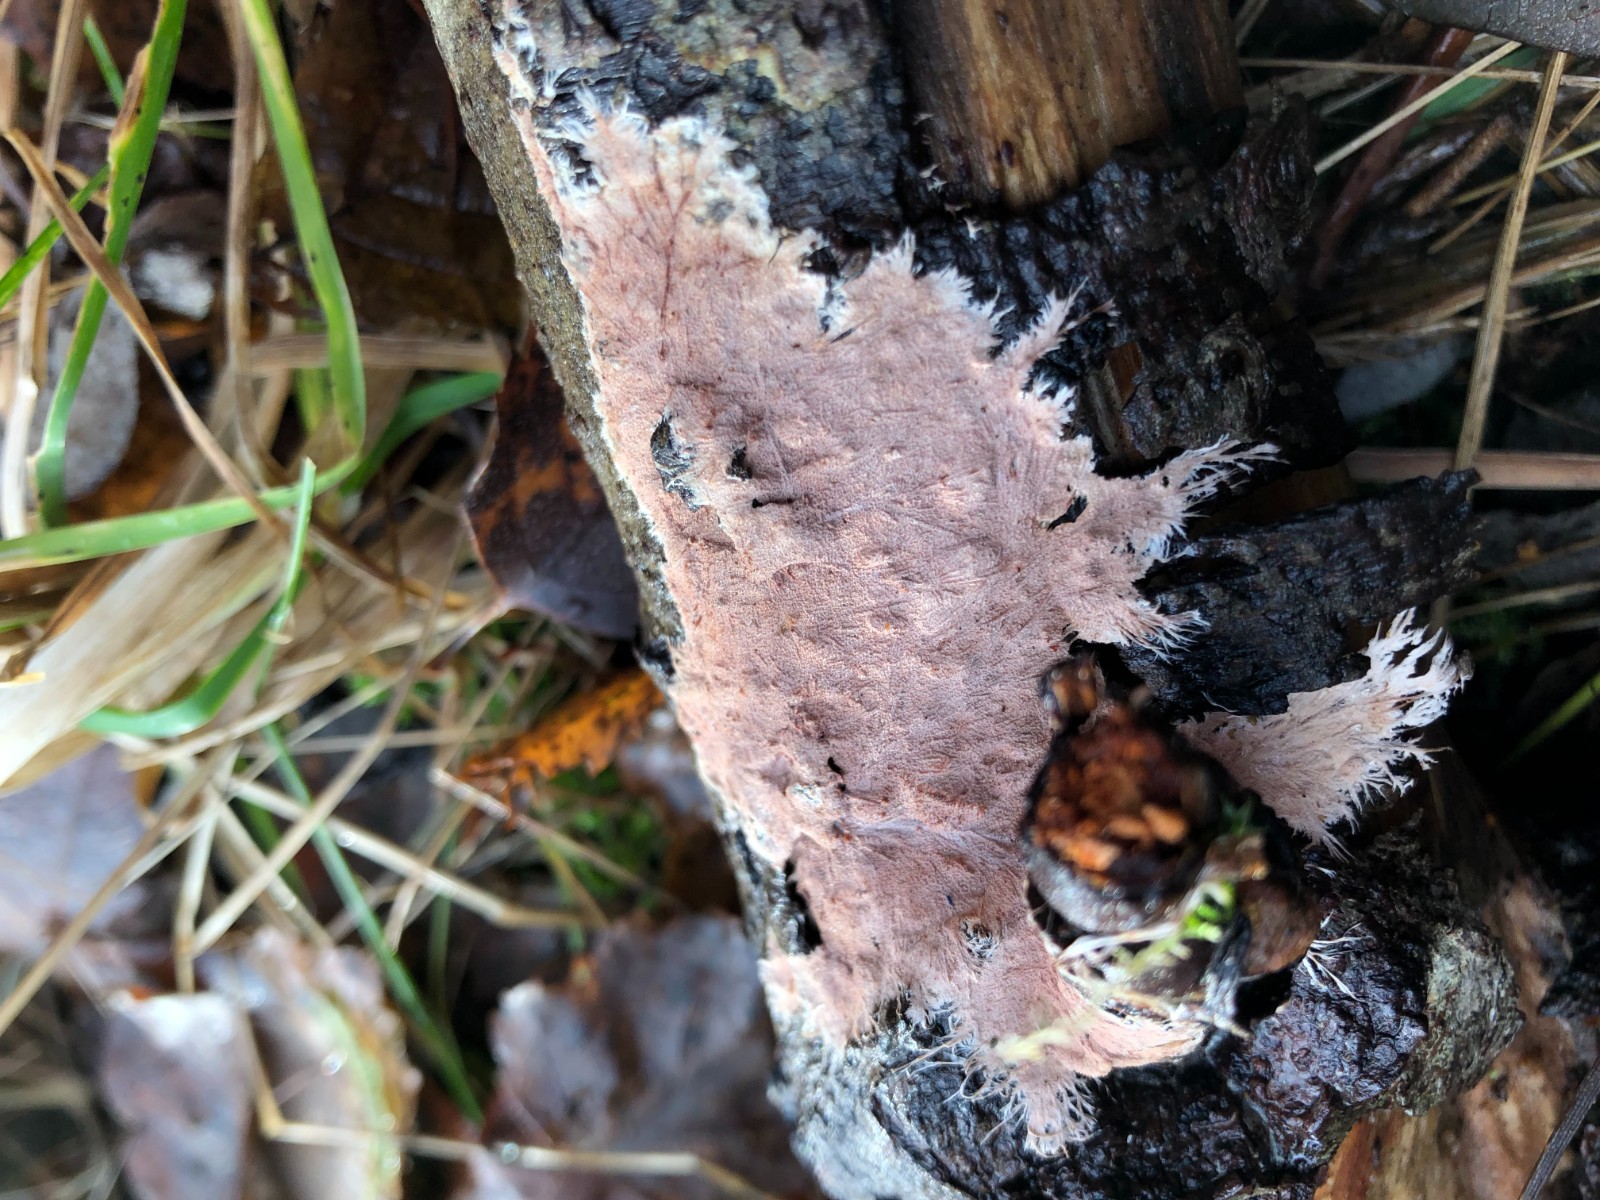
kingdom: Fungi
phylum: Basidiomycota
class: Agaricomycetes
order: Polyporales
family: Steccherinaceae
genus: Steccherinum
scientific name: Steccherinum fimbriatum
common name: trådet skønpig
